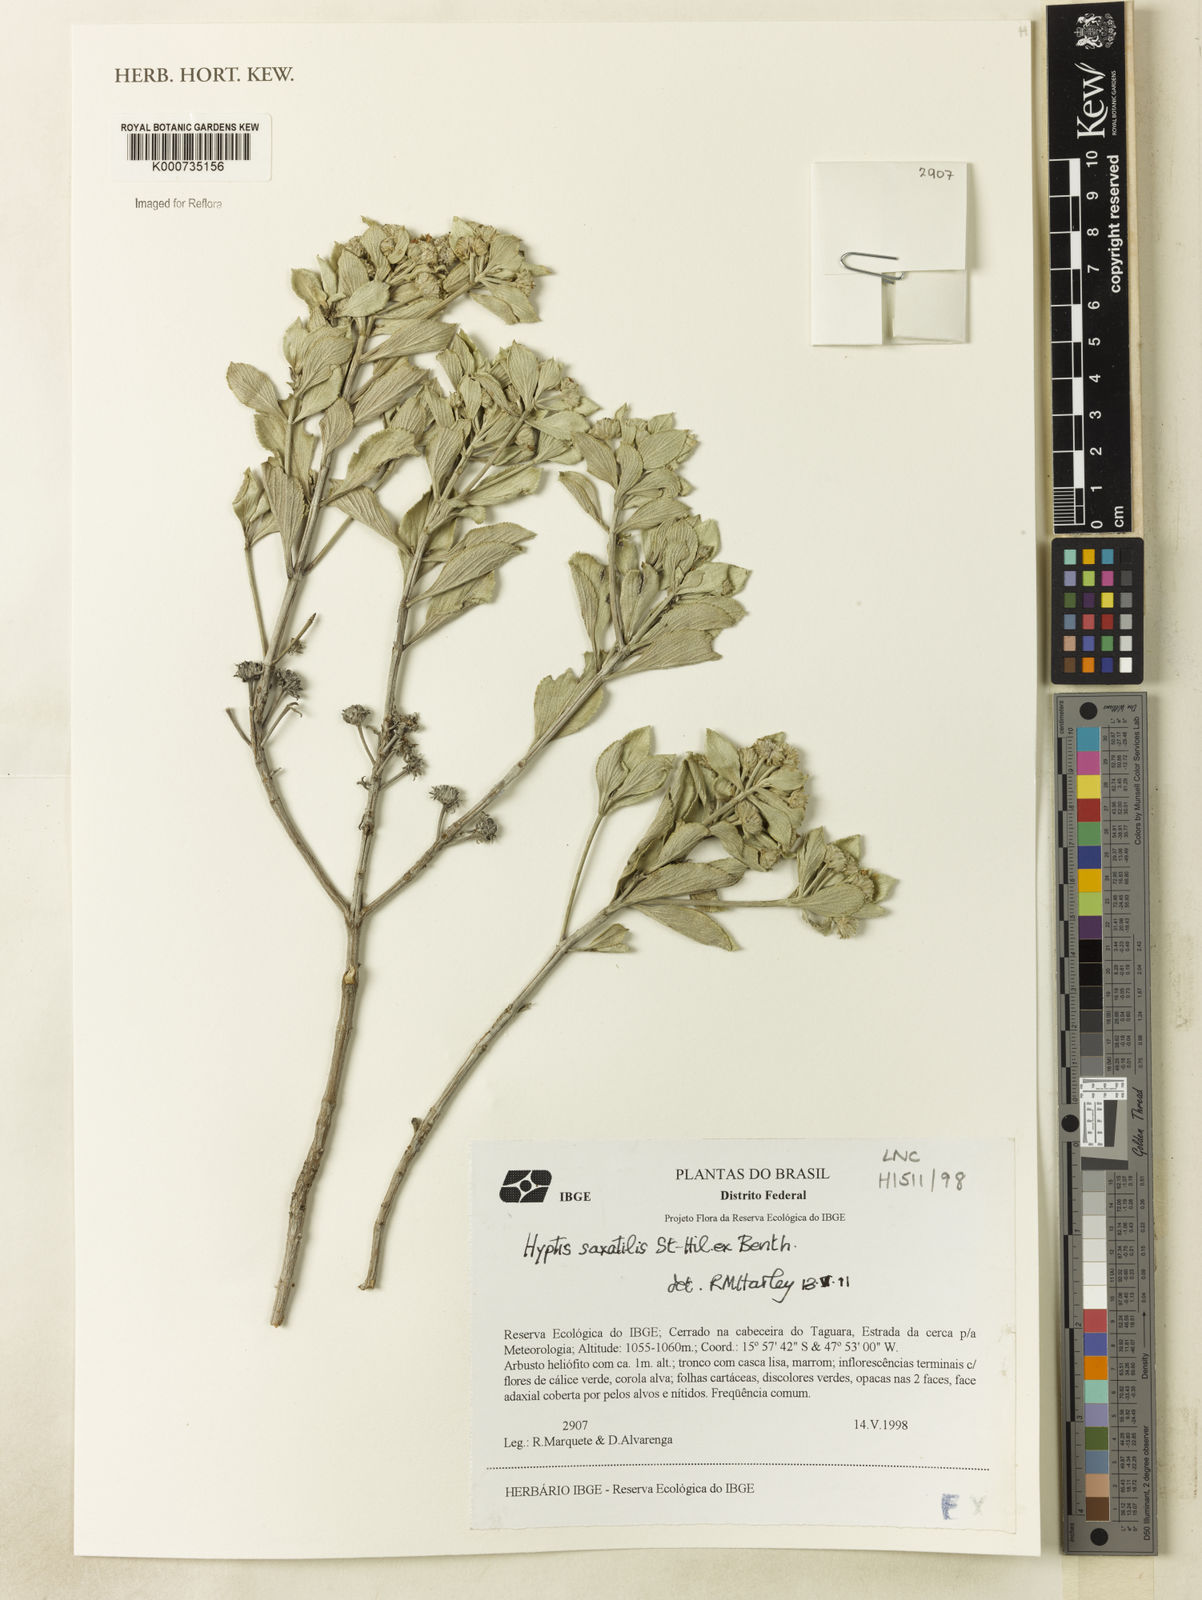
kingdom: Plantae
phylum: Tracheophyta
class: Magnoliopsida
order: Lamiales
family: Lamiaceae
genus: Hyptis
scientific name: Hyptis
